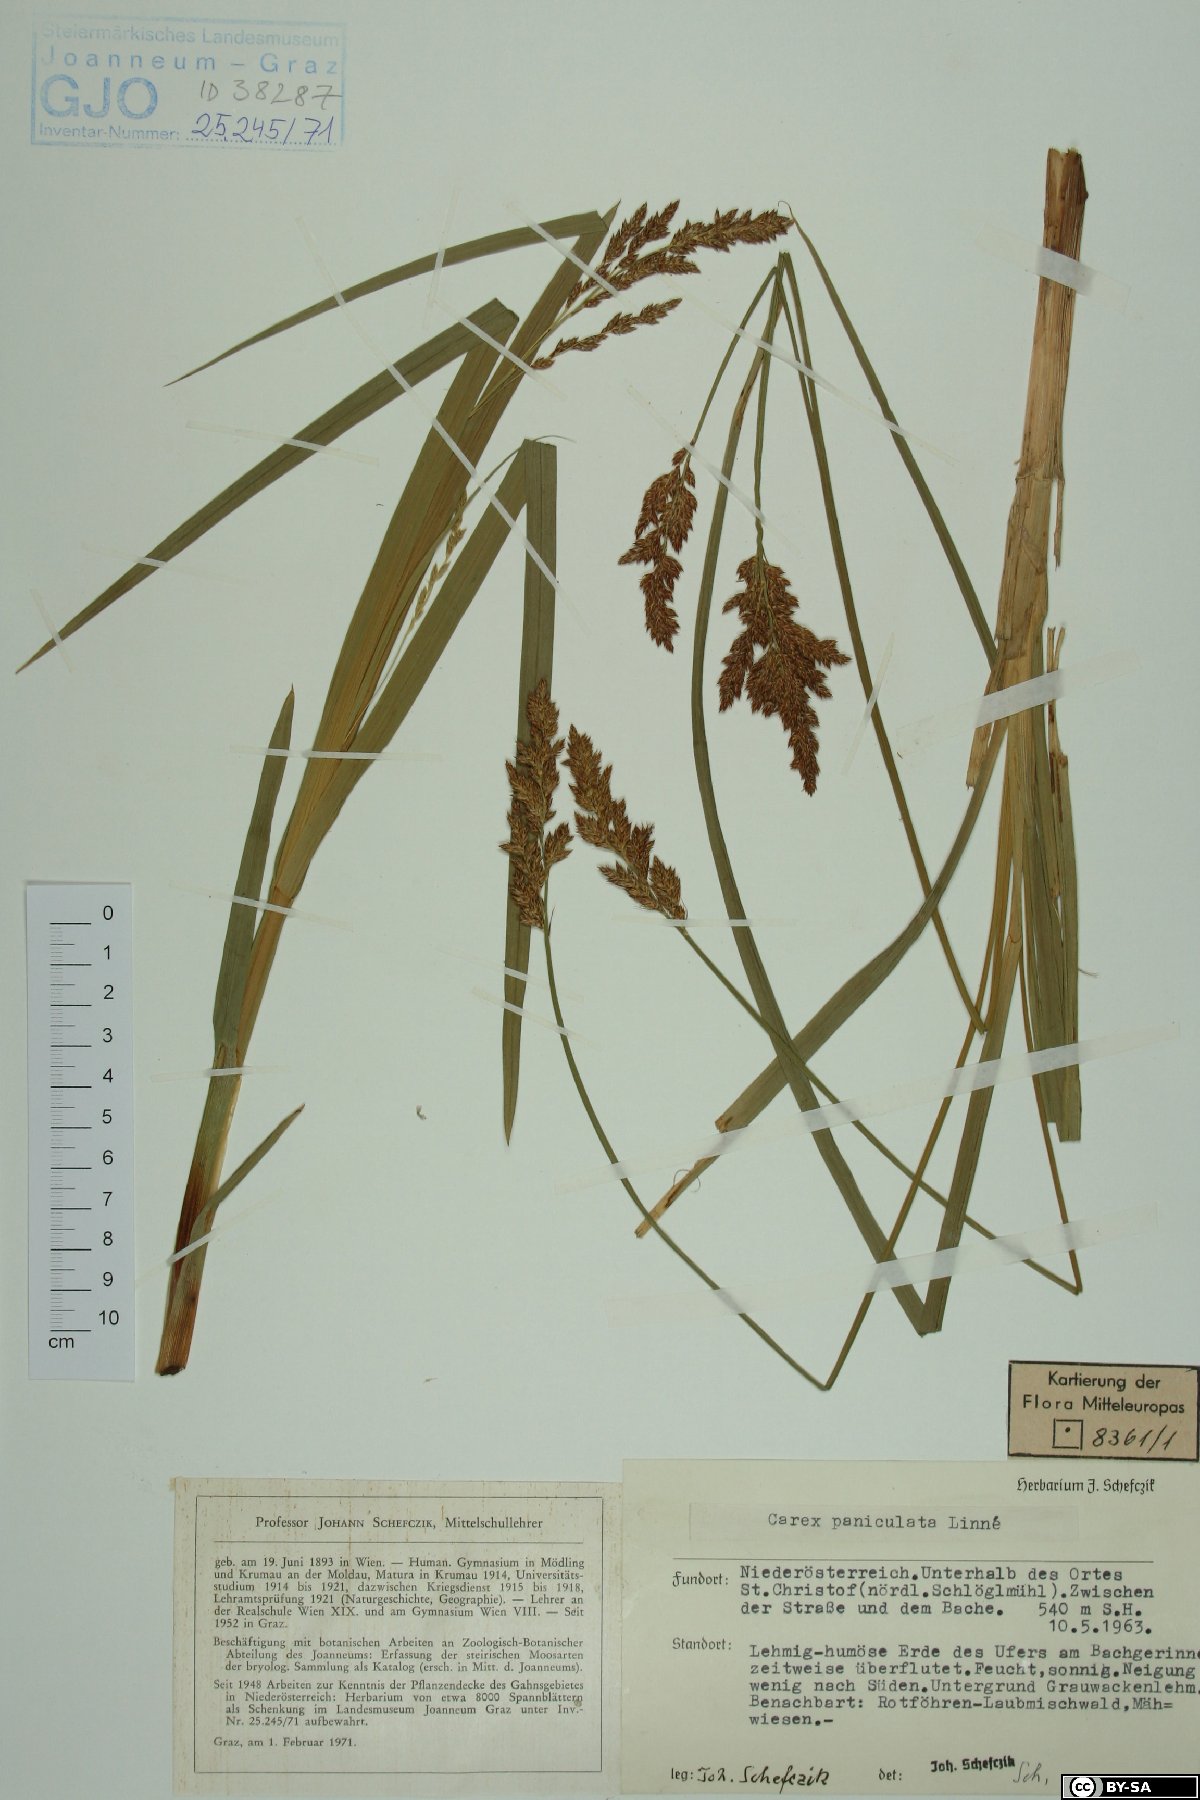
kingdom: Plantae
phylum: Tracheophyta
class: Liliopsida
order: Poales
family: Cyperaceae
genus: Carex
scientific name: Carex paniculata
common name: Greater tussock-sedge
